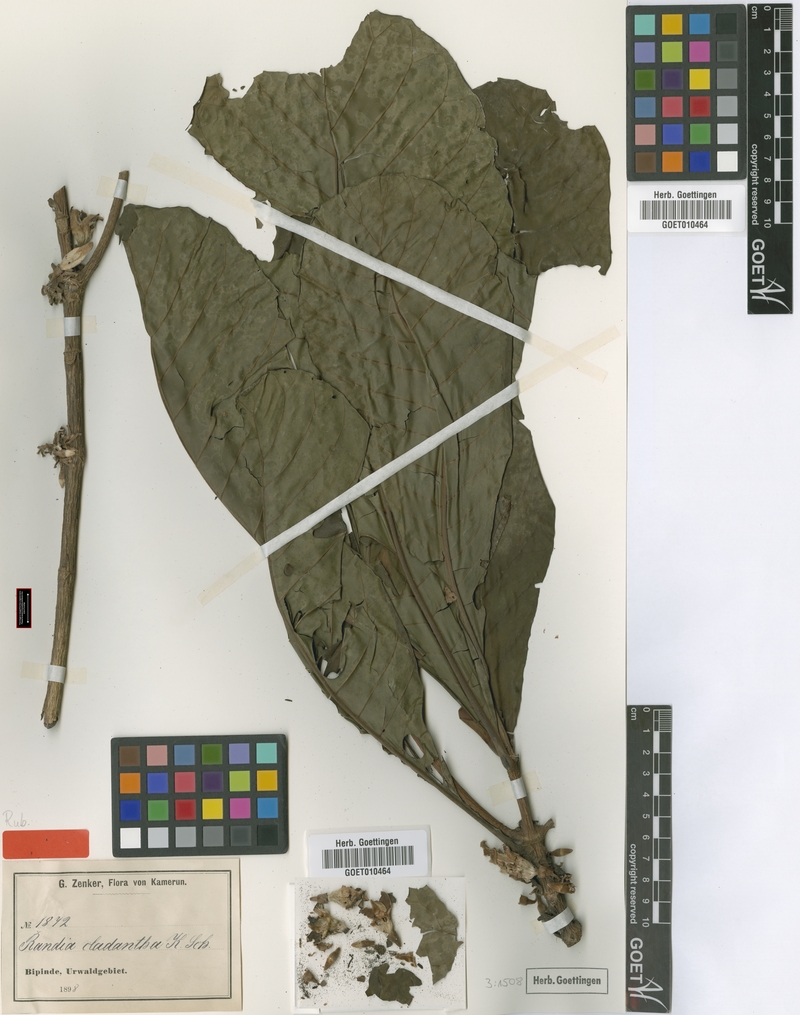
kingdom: Plantae
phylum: Tracheophyta
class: Magnoliopsida
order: Gentianales
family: Rubiaceae
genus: Aoranthe
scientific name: Aoranthe cladantha
